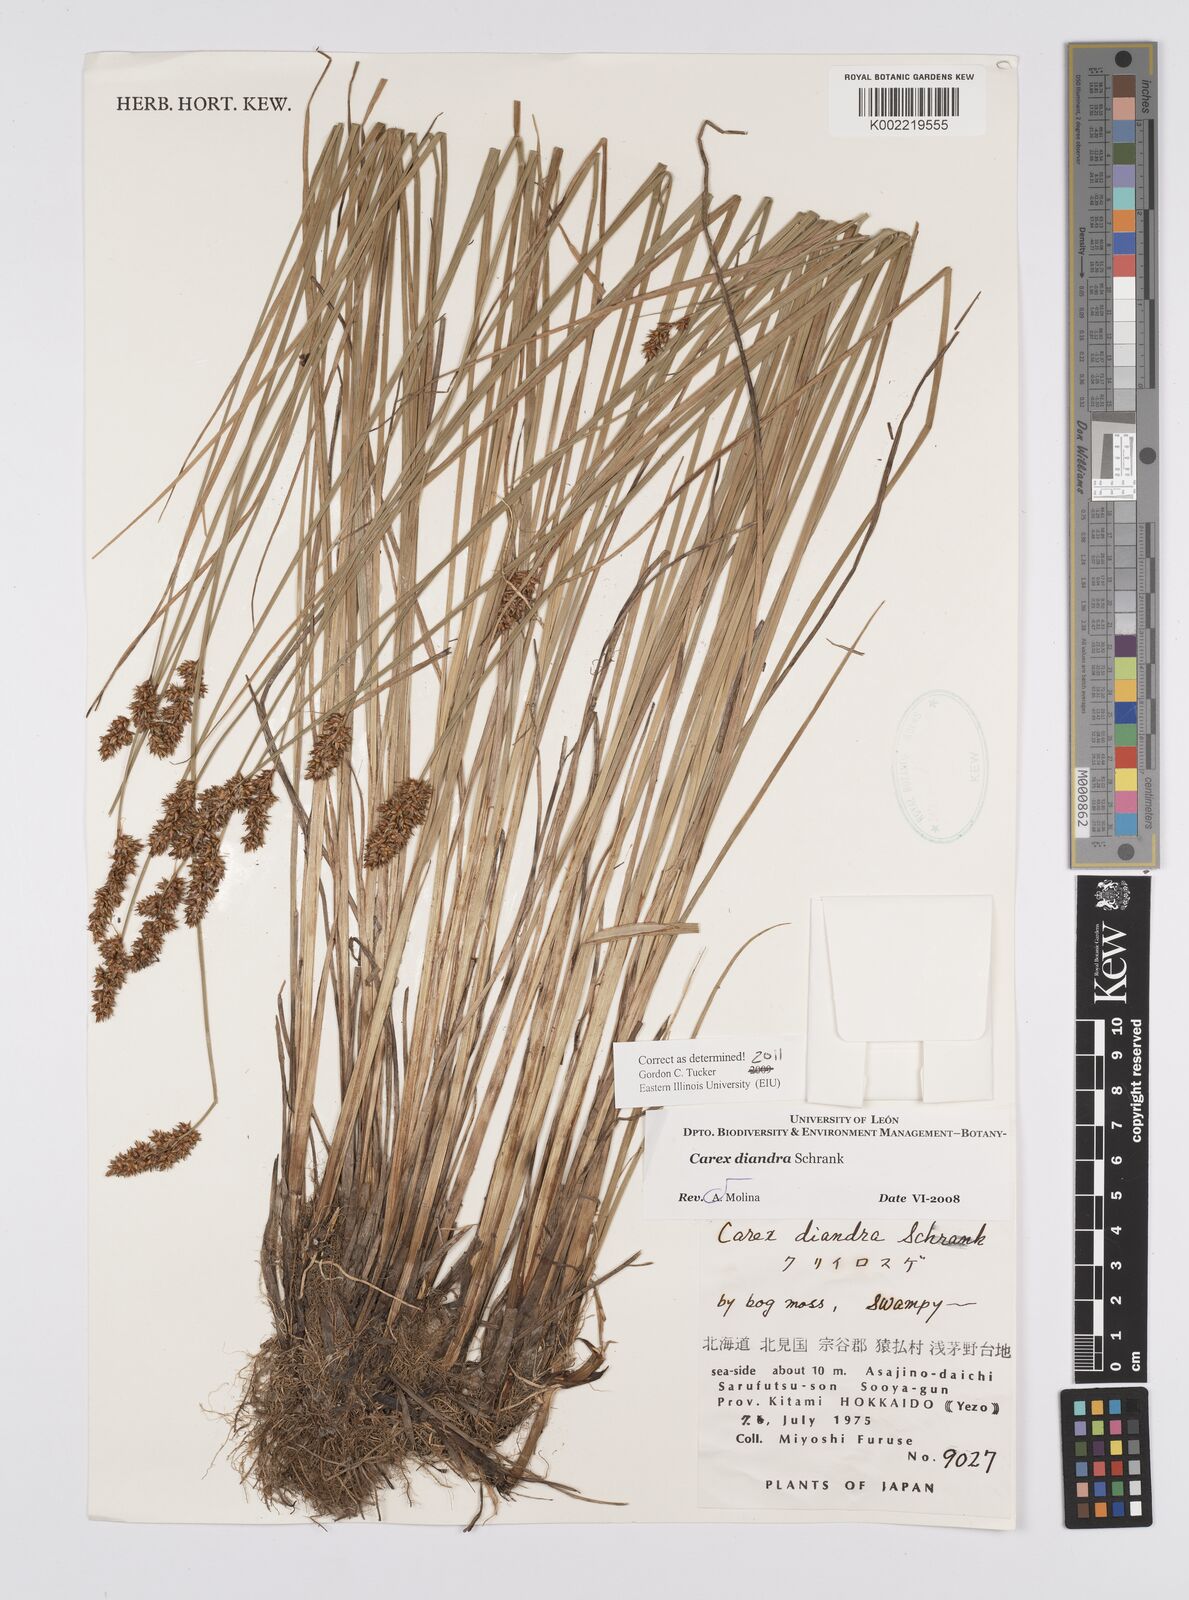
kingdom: Plantae
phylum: Tracheophyta
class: Liliopsida
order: Poales
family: Cyperaceae
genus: Carex
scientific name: Carex diandra
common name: Lesser tussock-sedge
